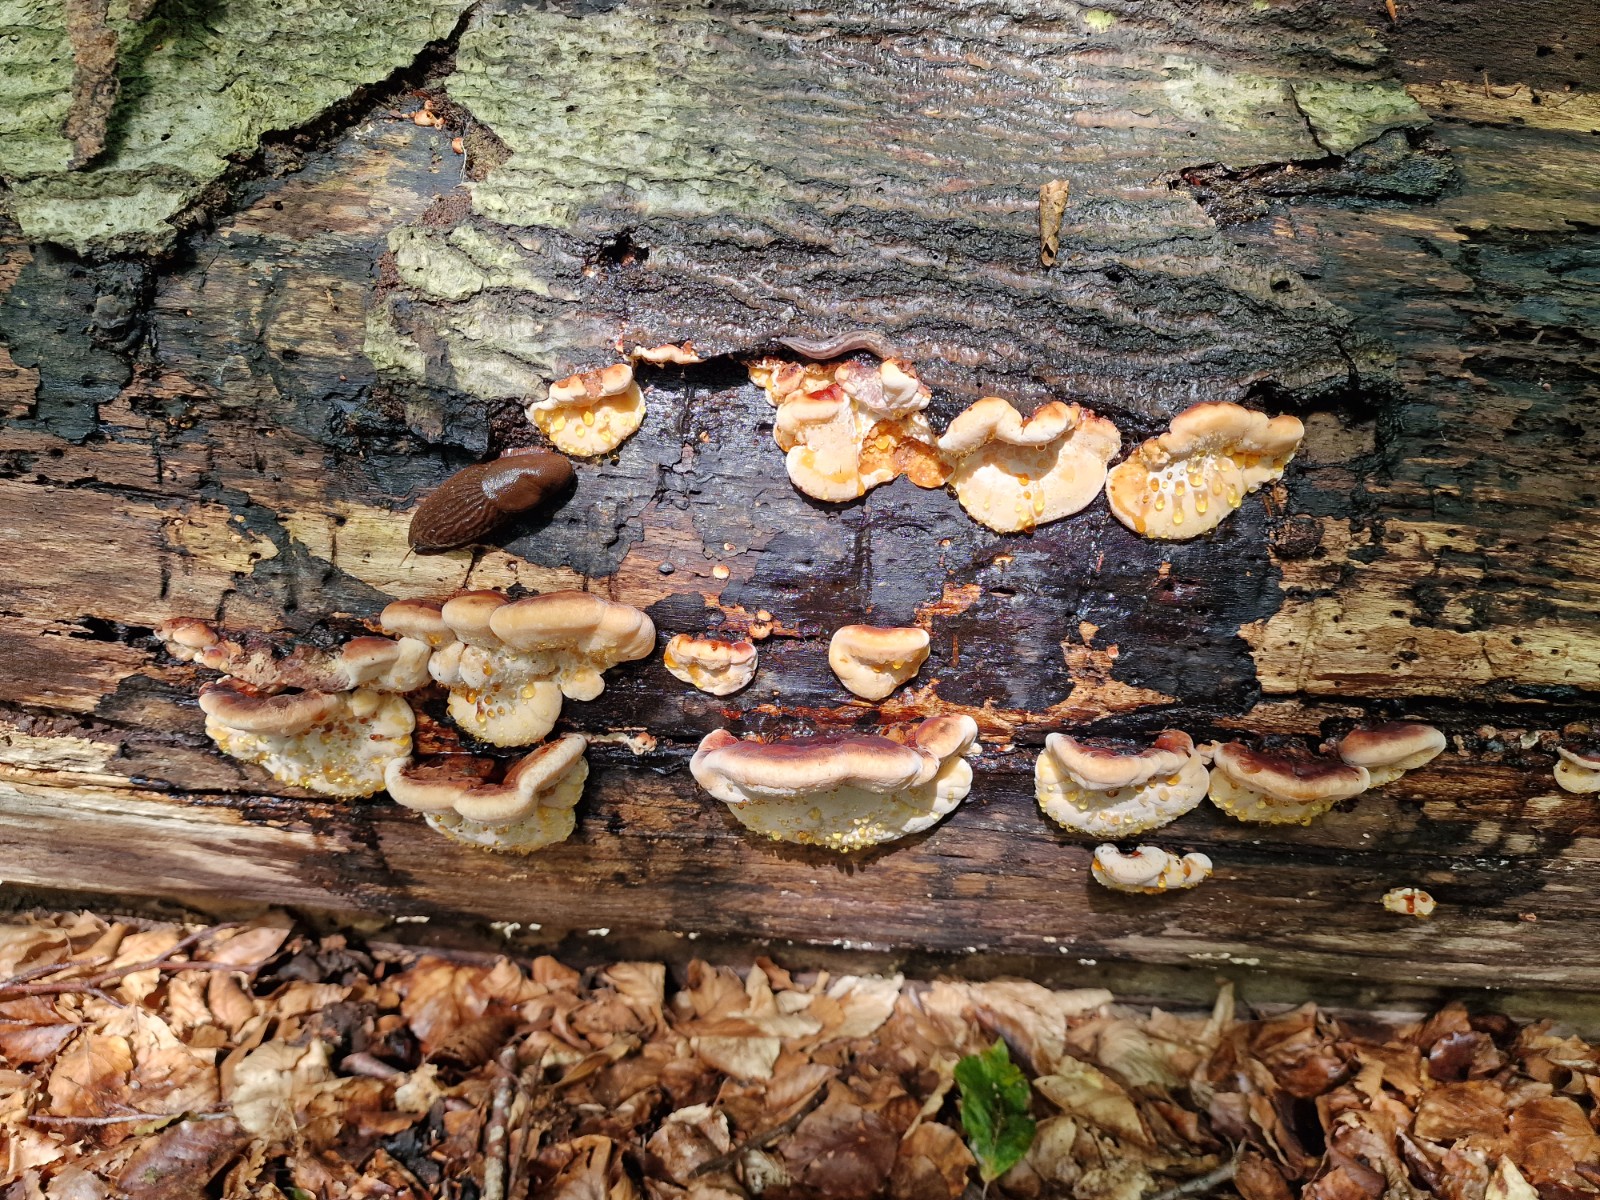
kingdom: Fungi
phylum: Basidiomycota
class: Agaricomycetes
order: Polyporales
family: Ischnodermataceae
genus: Ischnoderma
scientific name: Ischnoderma resinosum
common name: løv-tjæreporesvamp
